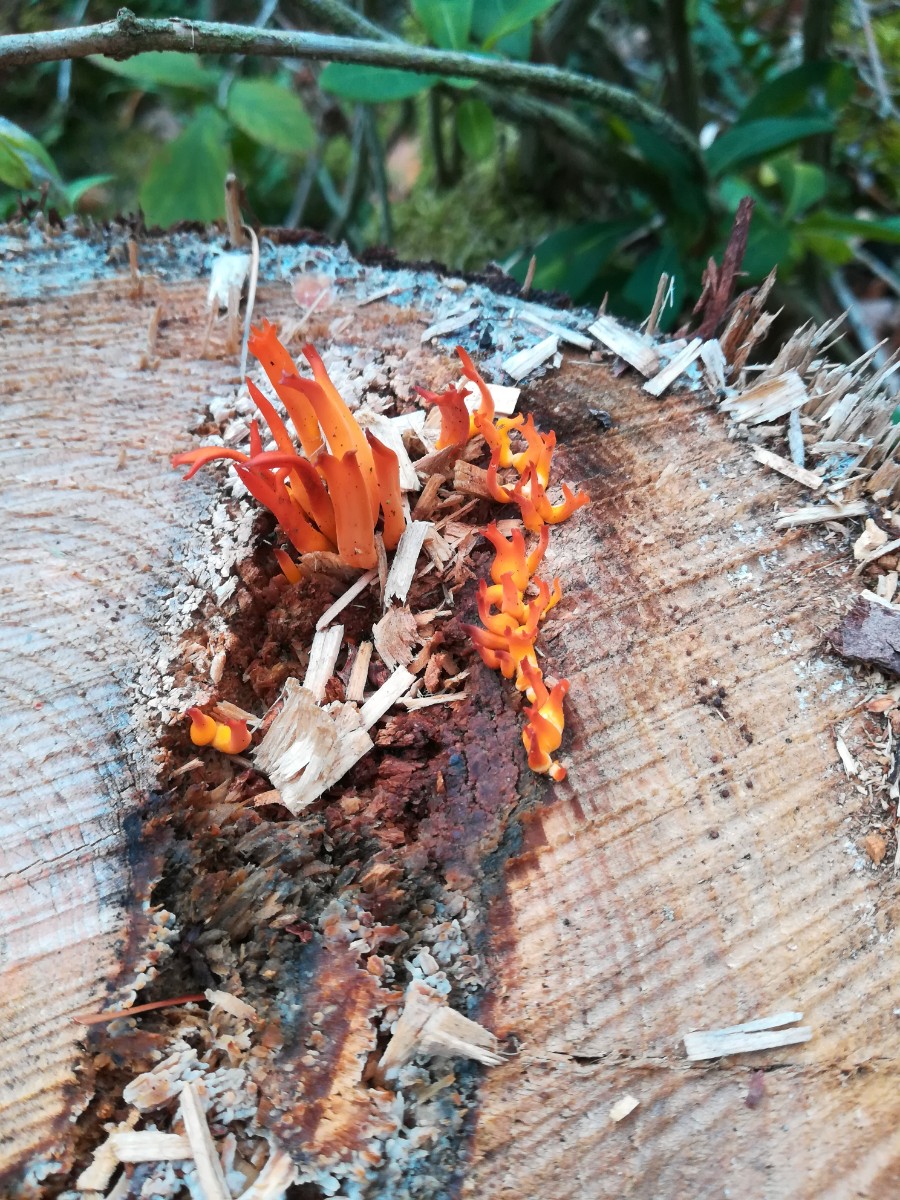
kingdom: Fungi
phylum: Basidiomycota
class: Dacrymycetes
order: Dacrymycetales
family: Dacrymycetaceae
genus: Calocera
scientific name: Calocera viscosa
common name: almindelig guldgaffel
